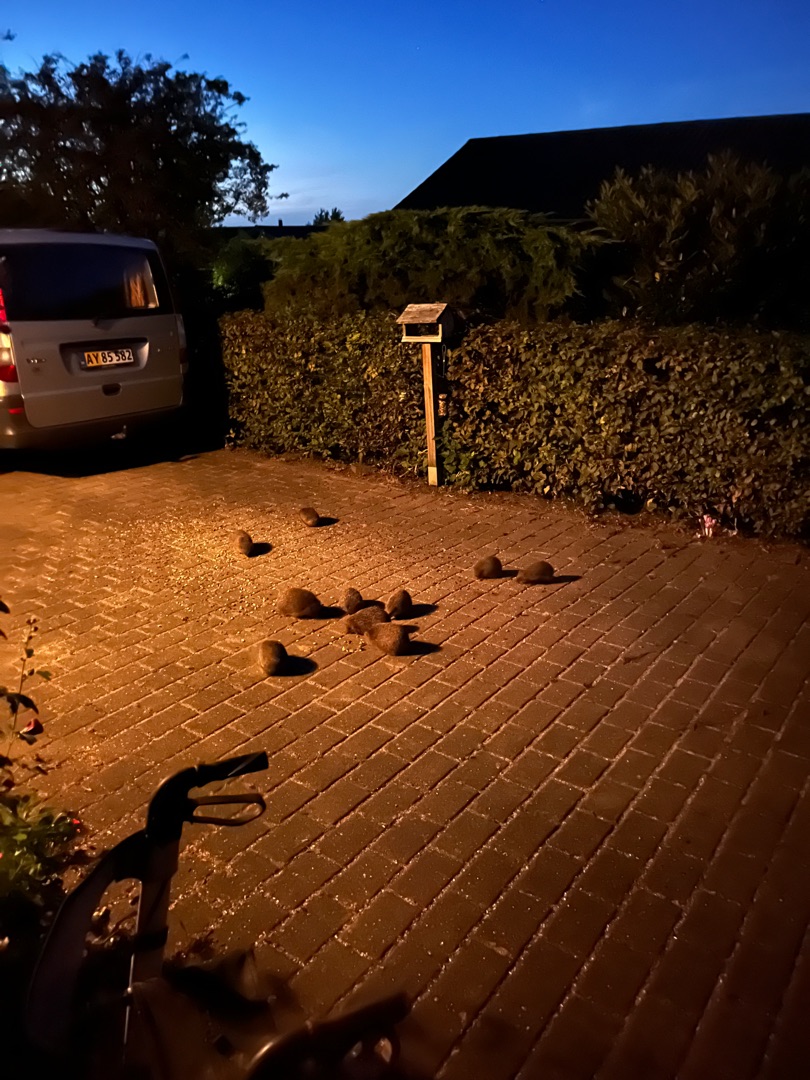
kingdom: Animalia
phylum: Chordata
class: Mammalia
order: Erinaceomorpha
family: Erinaceidae
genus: Erinaceus
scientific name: Erinaceus europaeus
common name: Pindsvin
